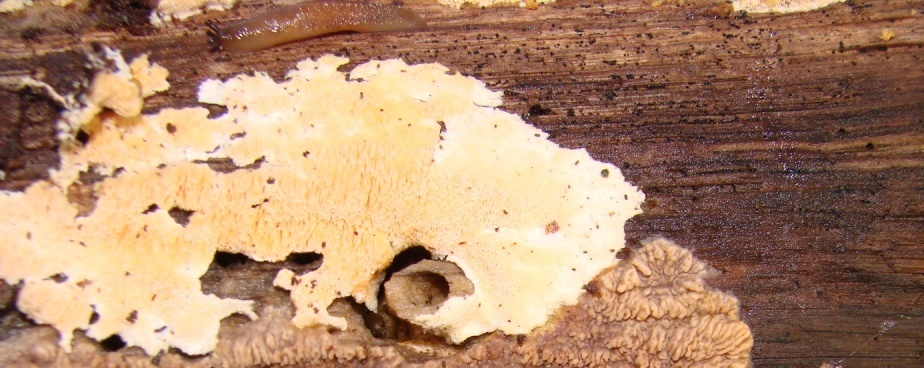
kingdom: Fungi
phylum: Basidiomycota
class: Agaricomycetes
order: Hymenochaetales
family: Schizoporaceae
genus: Schizopora
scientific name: Schizopora paradoxa
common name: hvid tandsvamp
